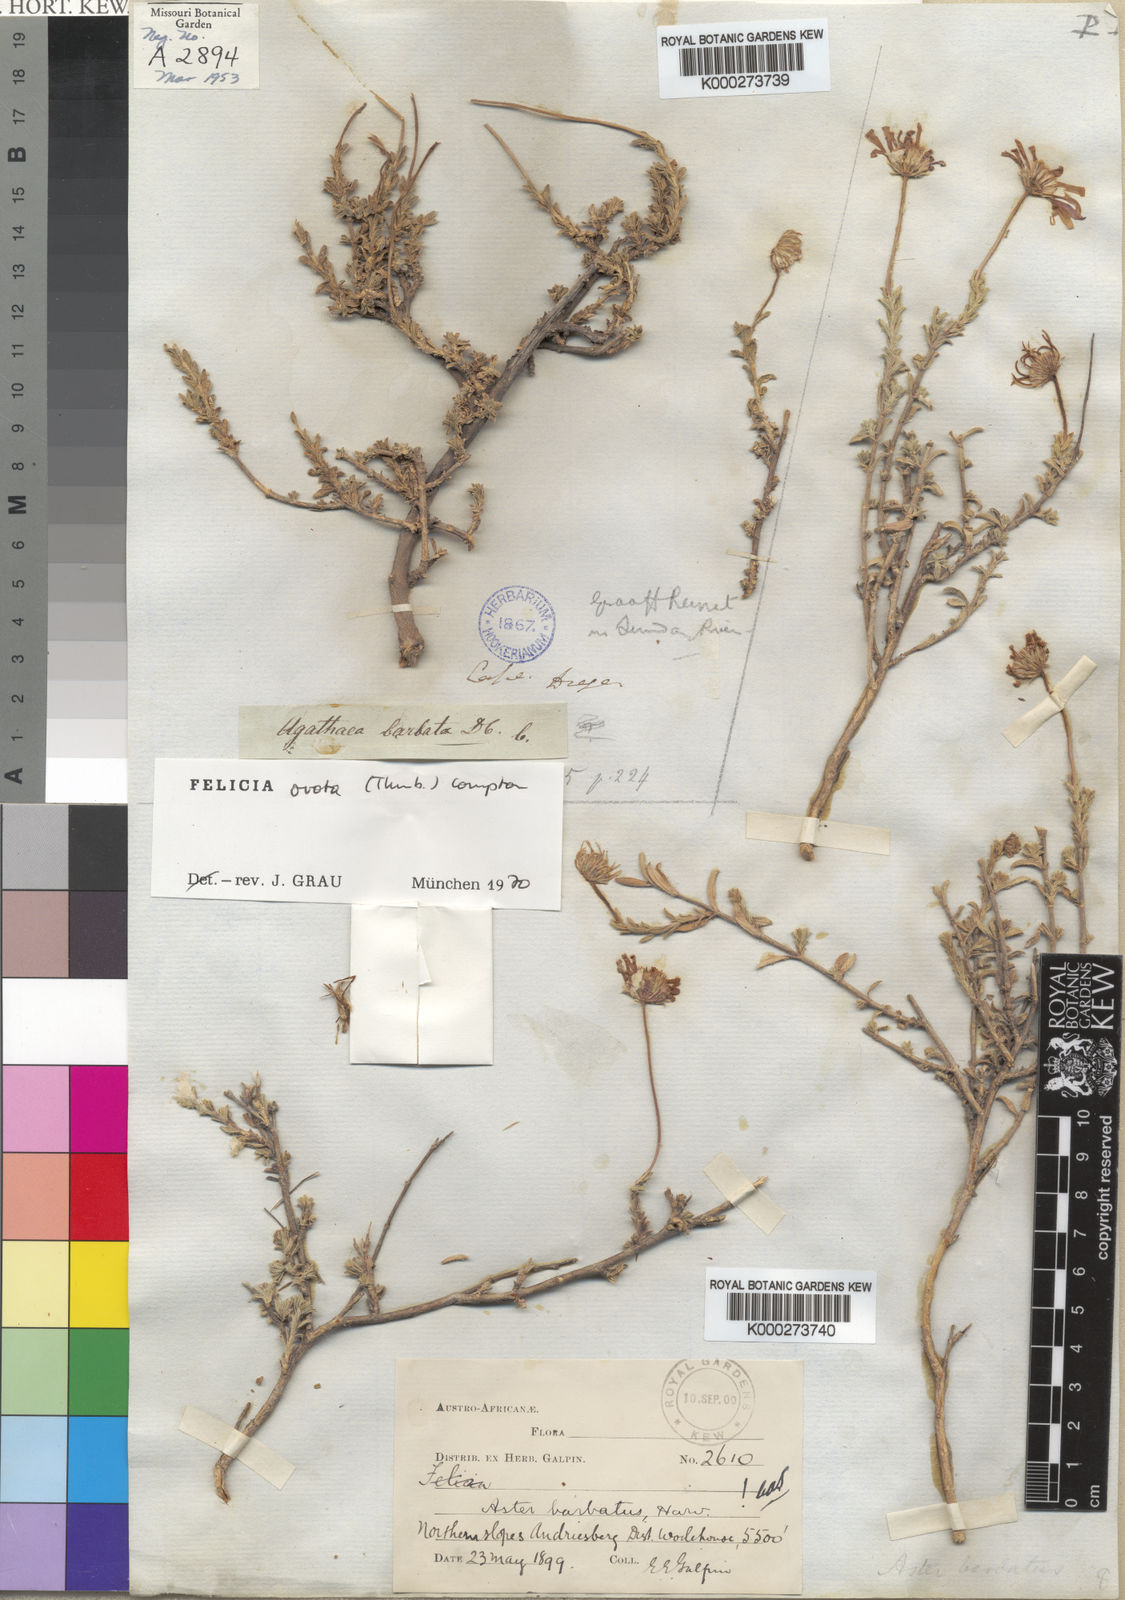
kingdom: Plantae
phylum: Tracheophyta
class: Magnoliopsida
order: Asterales
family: Asteraceae
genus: Felicia
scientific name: Felicia ovata
